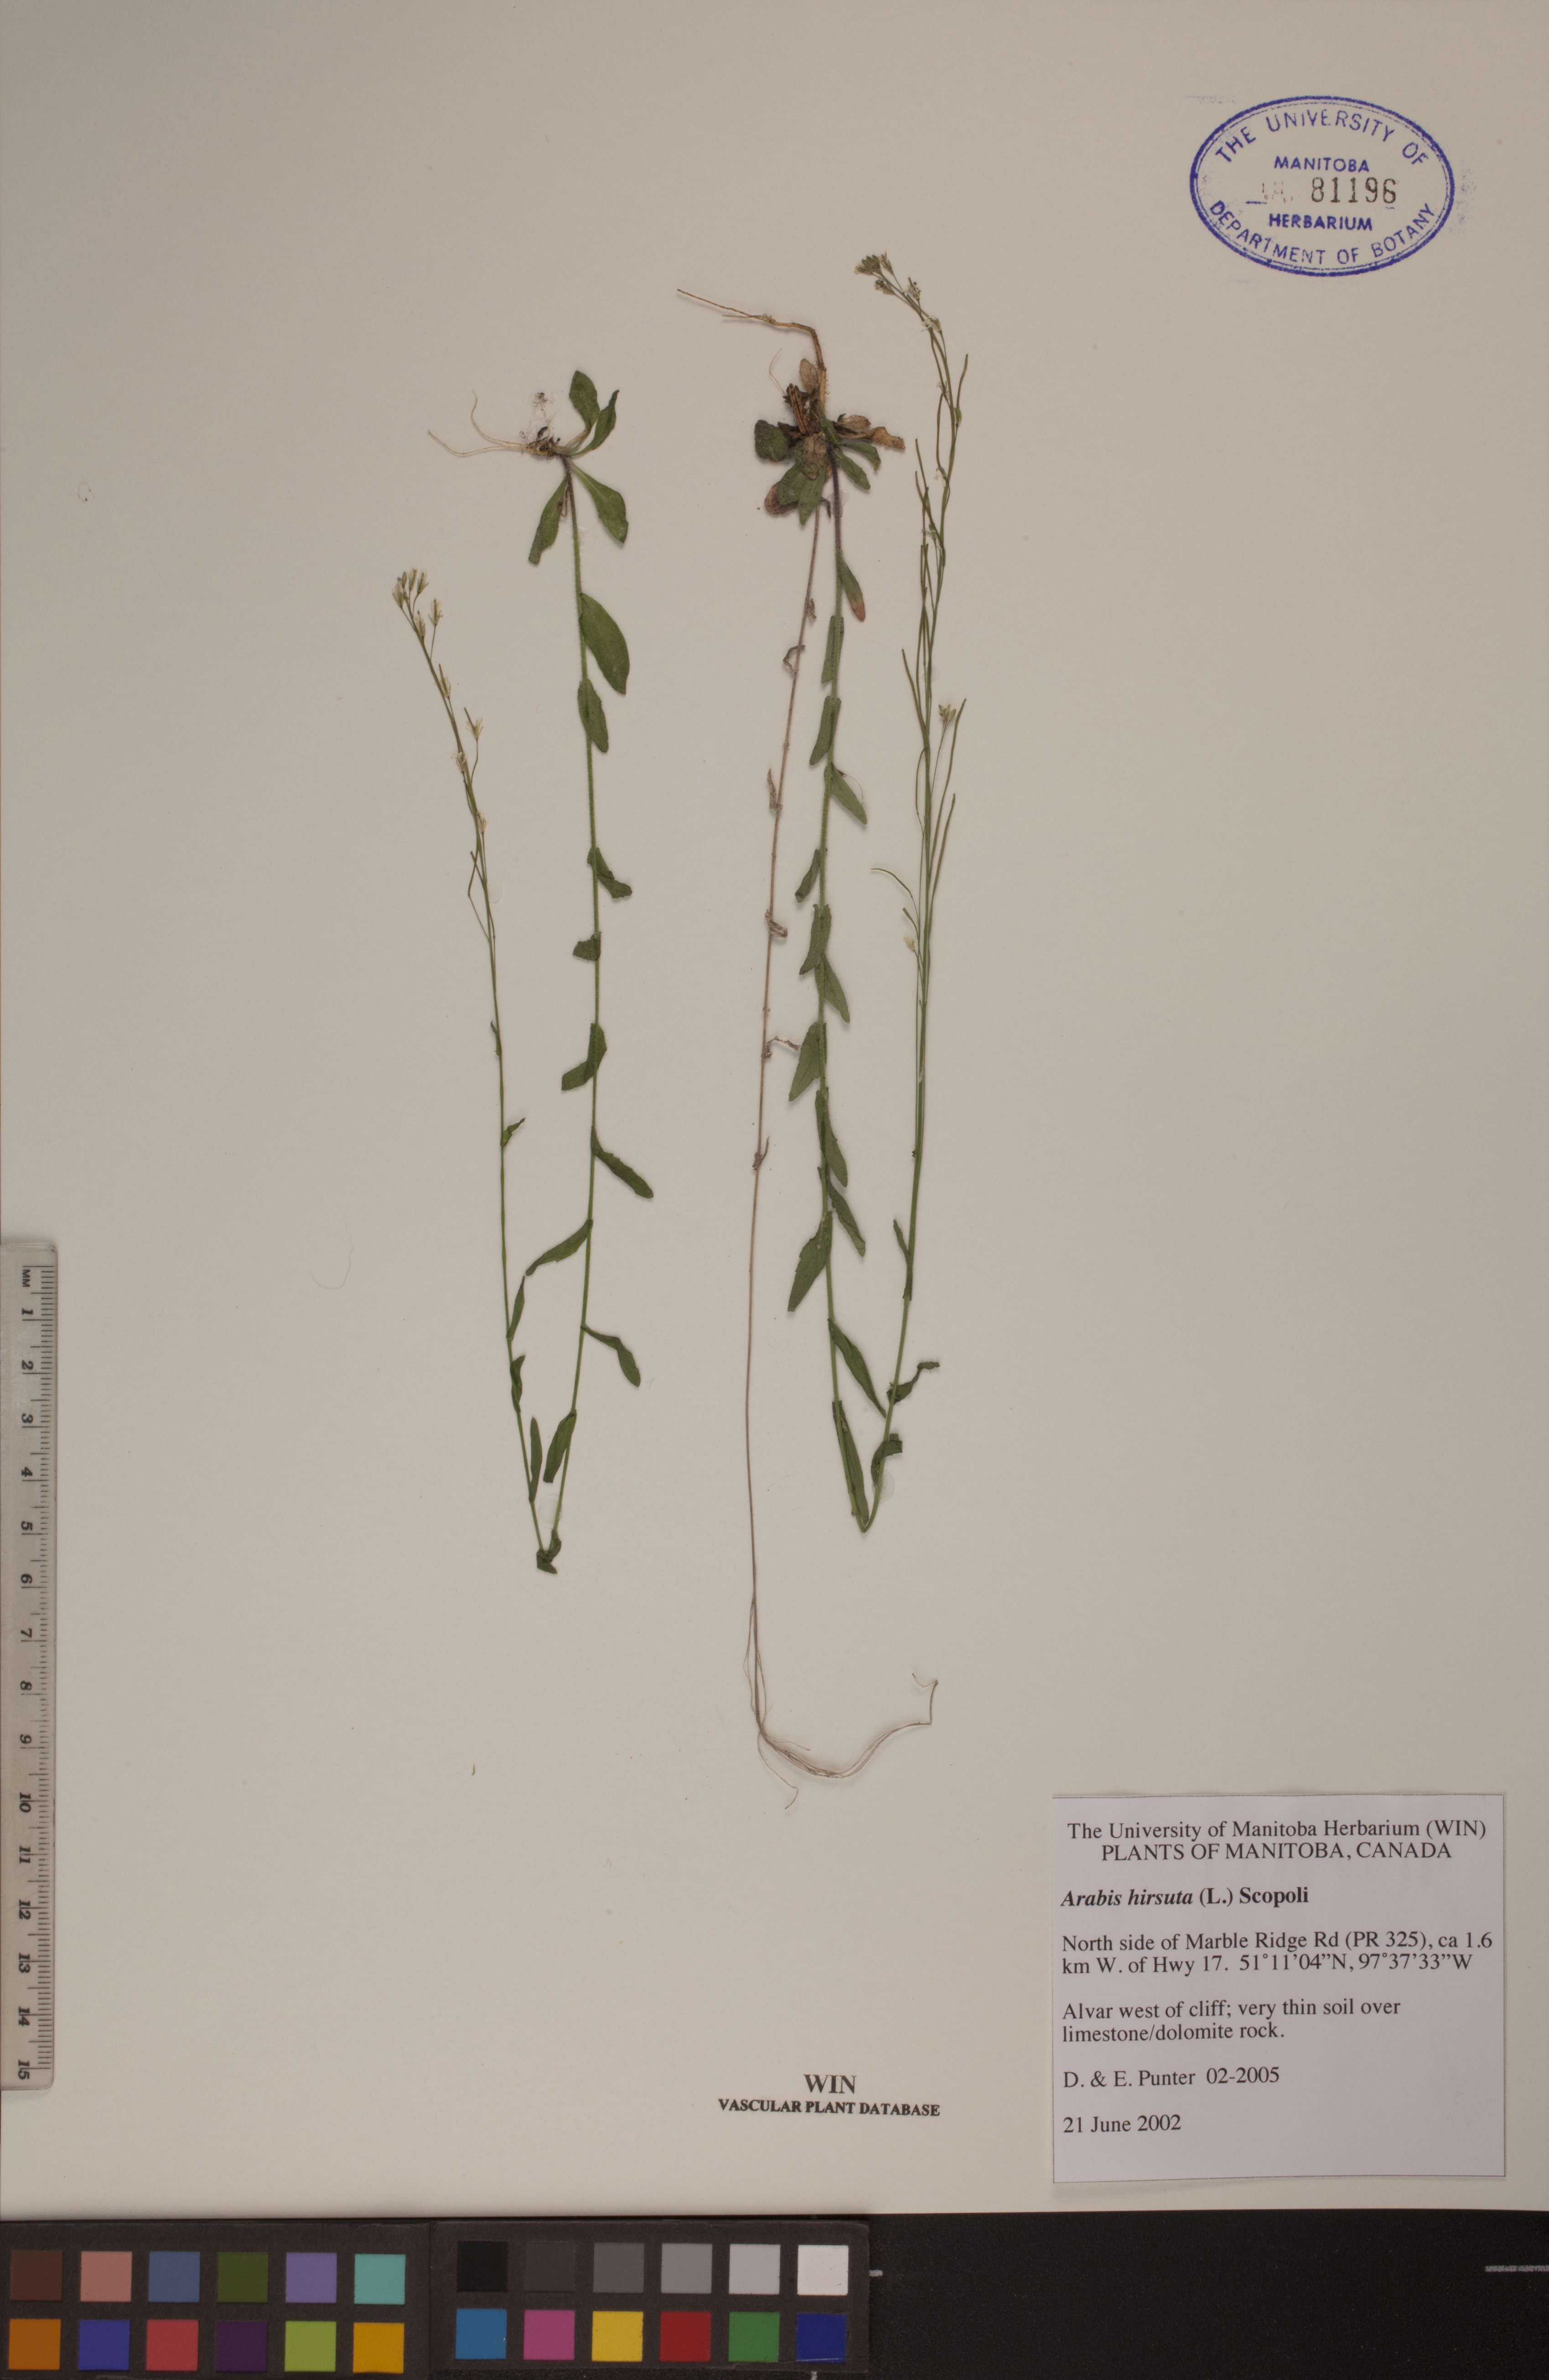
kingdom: Plantae
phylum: Tracheophyta
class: Magnoliopsida
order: Brassicales
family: Brassicaceae
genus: Arabis
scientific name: Arabis hirsuta
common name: Hairy rock-cress
